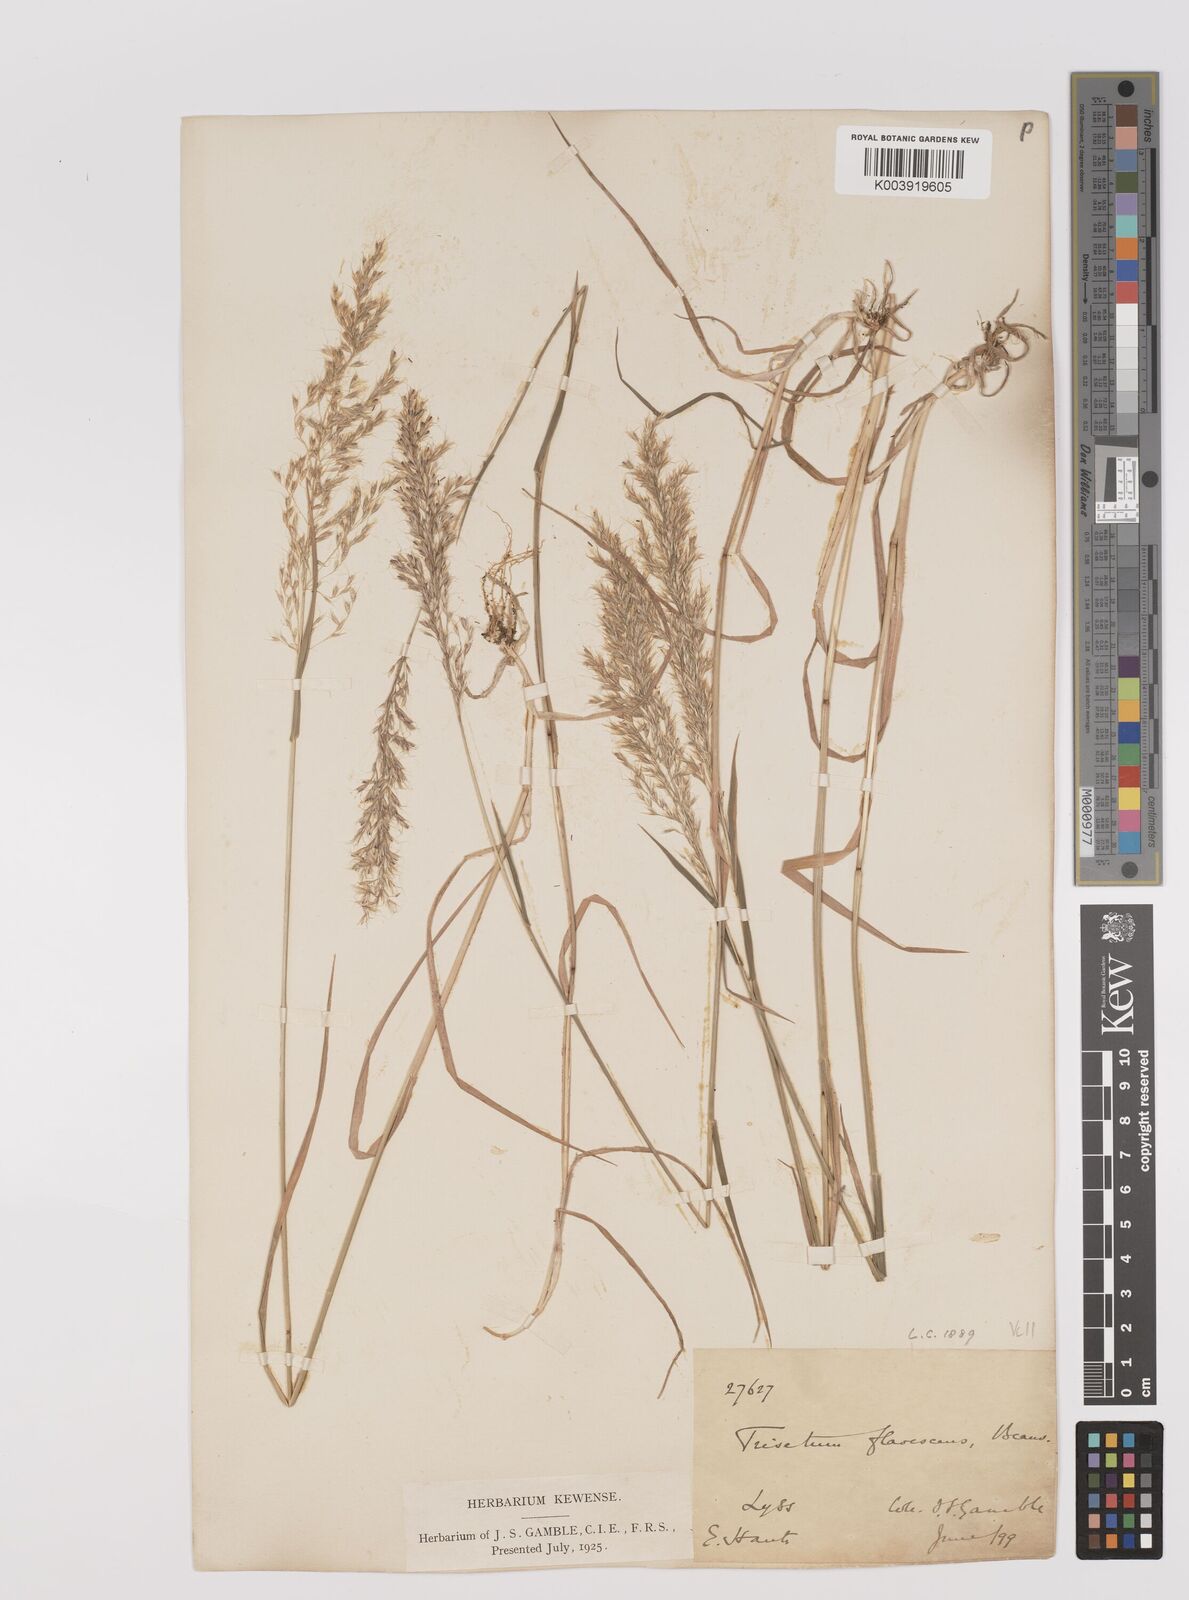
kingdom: Plantae
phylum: Tracheophyta
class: Liliopsida
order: Poales
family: Poaceae
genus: Trisetum
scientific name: Trisetum flavescens
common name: Yellow oat-grass
